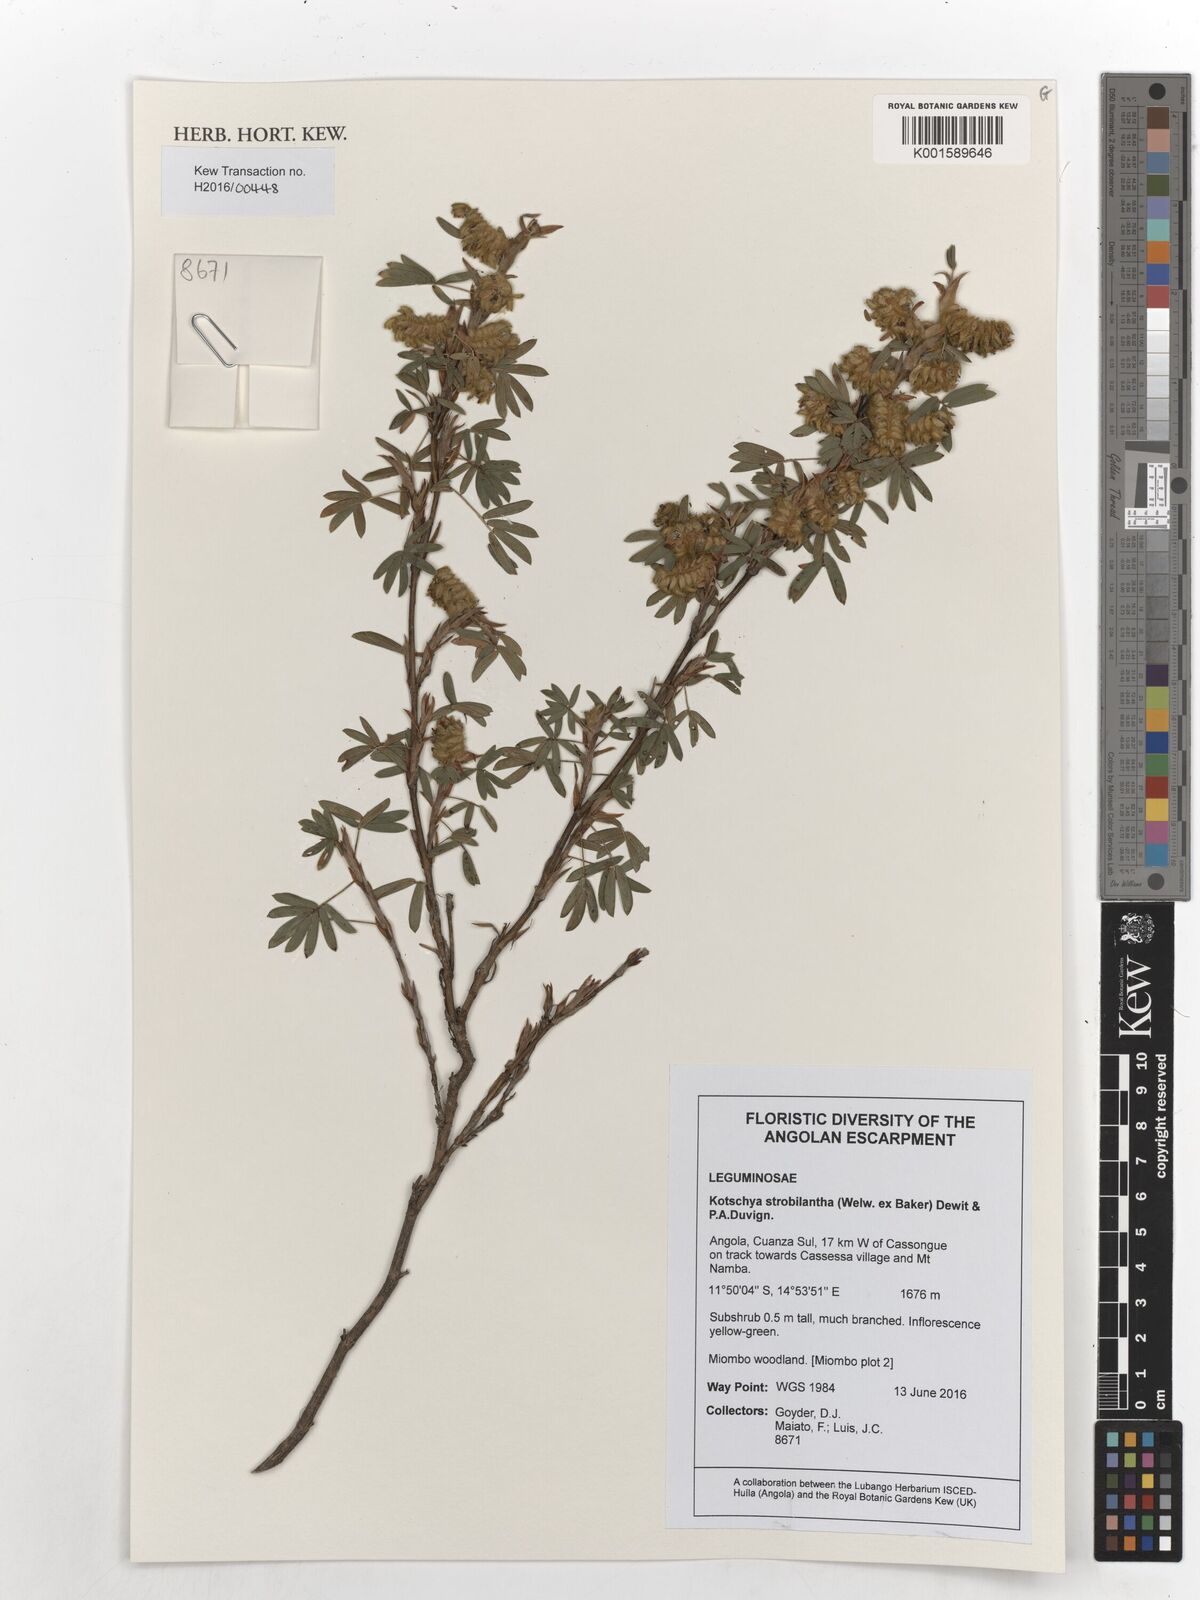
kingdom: Plantae
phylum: Tracheophyta
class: Magnoliopsida
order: Fabales
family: Fabaceae
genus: Kotschya
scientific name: Kotschya strobilantha
